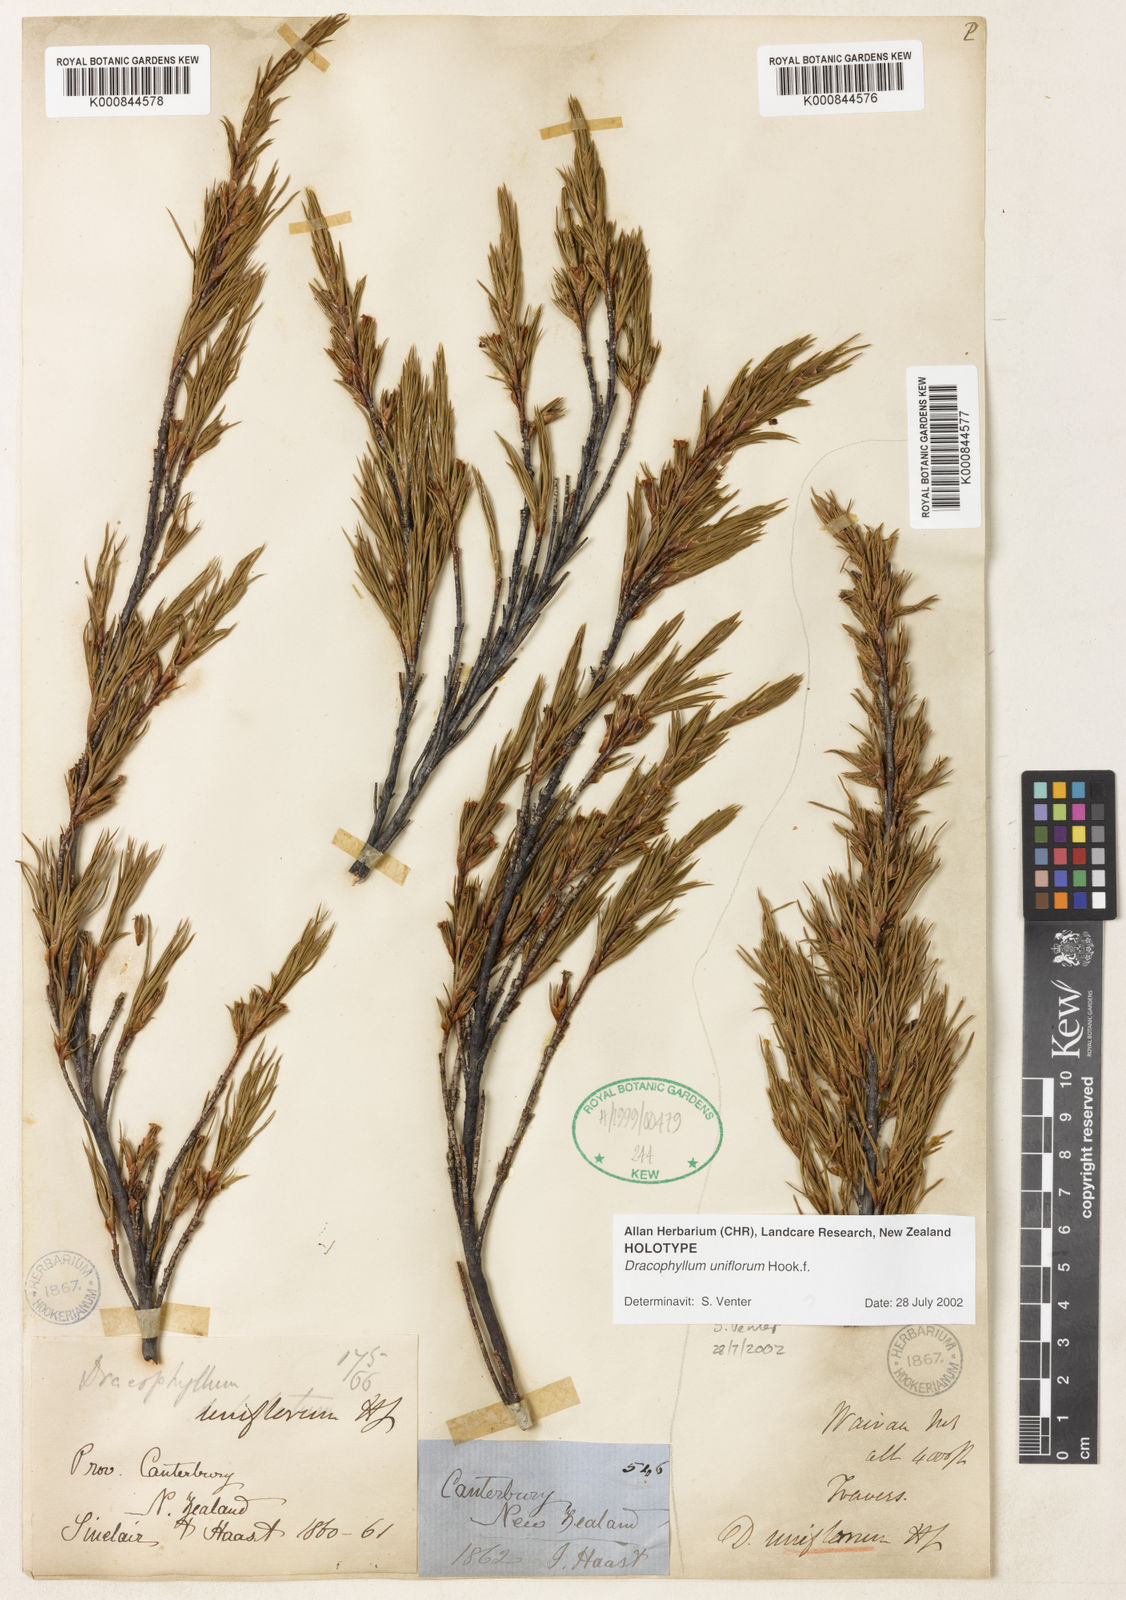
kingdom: Plantae
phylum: Tracheophyta
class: Magnoliopsida
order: Ericales
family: Ericaceae
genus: Dracophyllum
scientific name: Dracophyllum uniflorum
